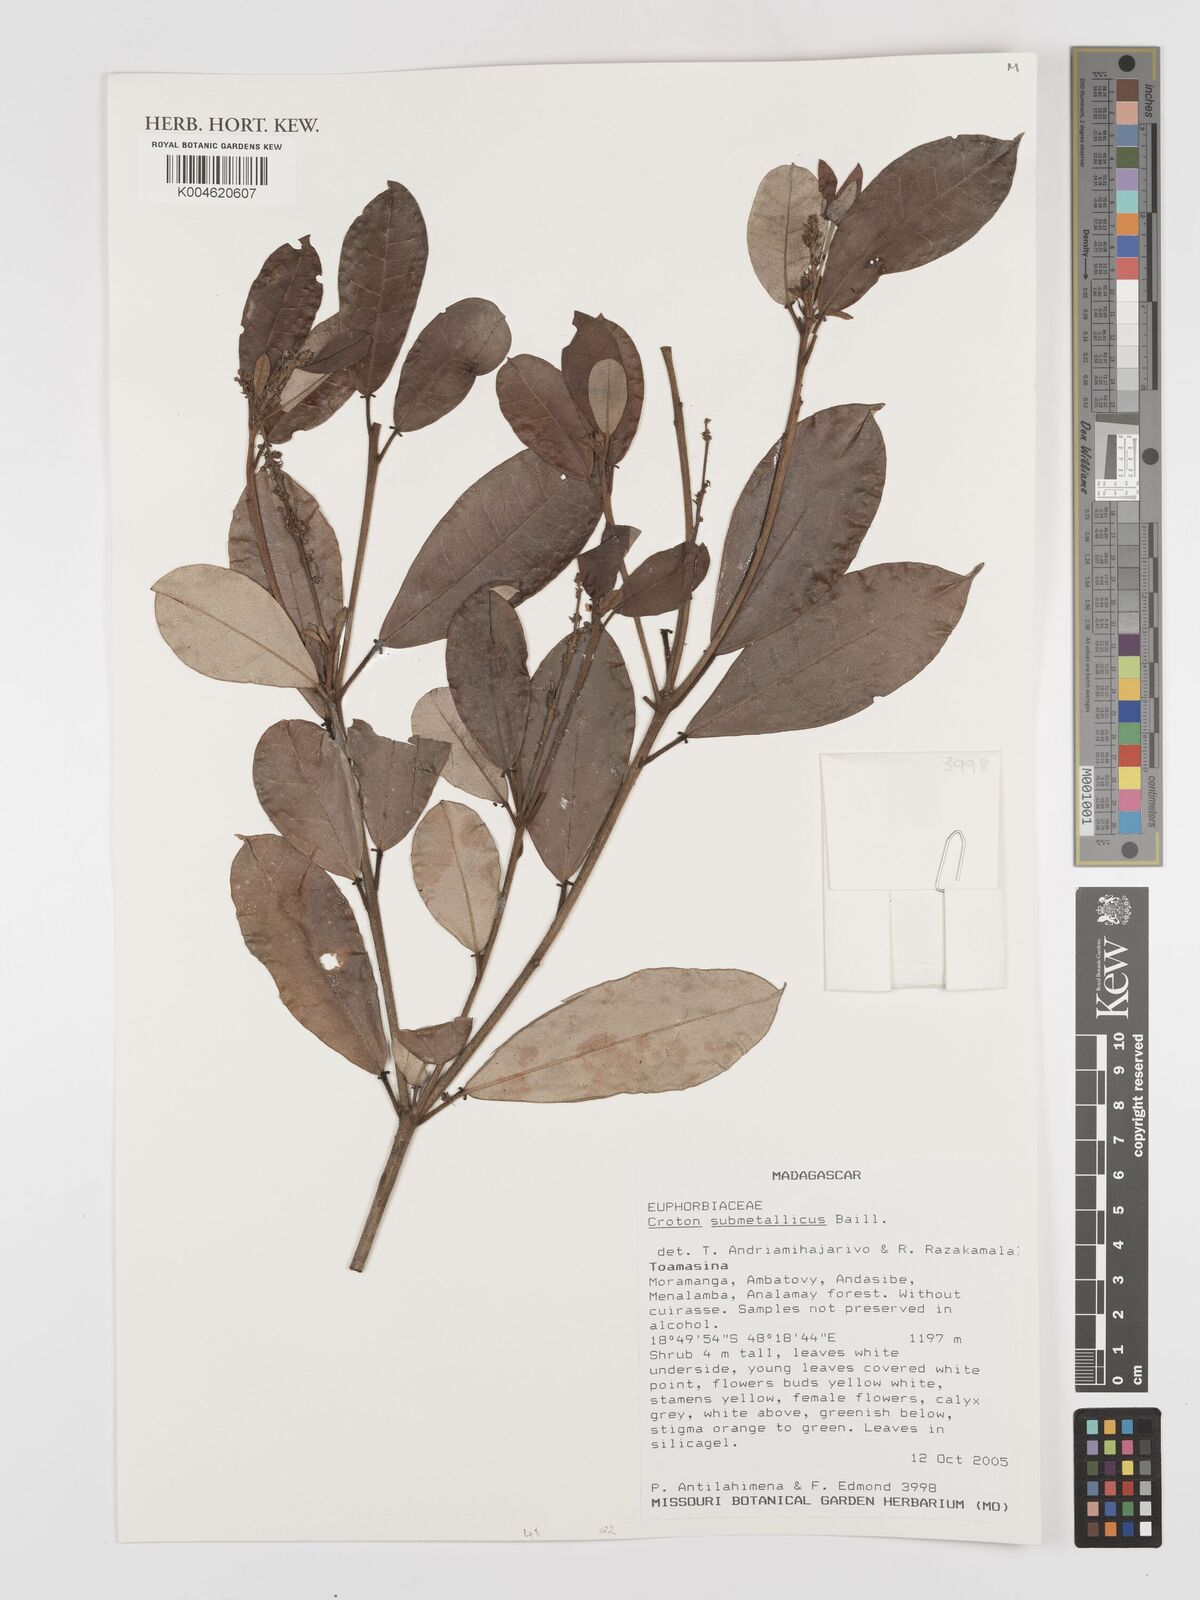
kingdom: Plantae
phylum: Tracheophyta
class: Magnoliopsida
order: Malpighiales
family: Euphorbiaceae
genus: Croton
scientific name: Croton submetallicus
